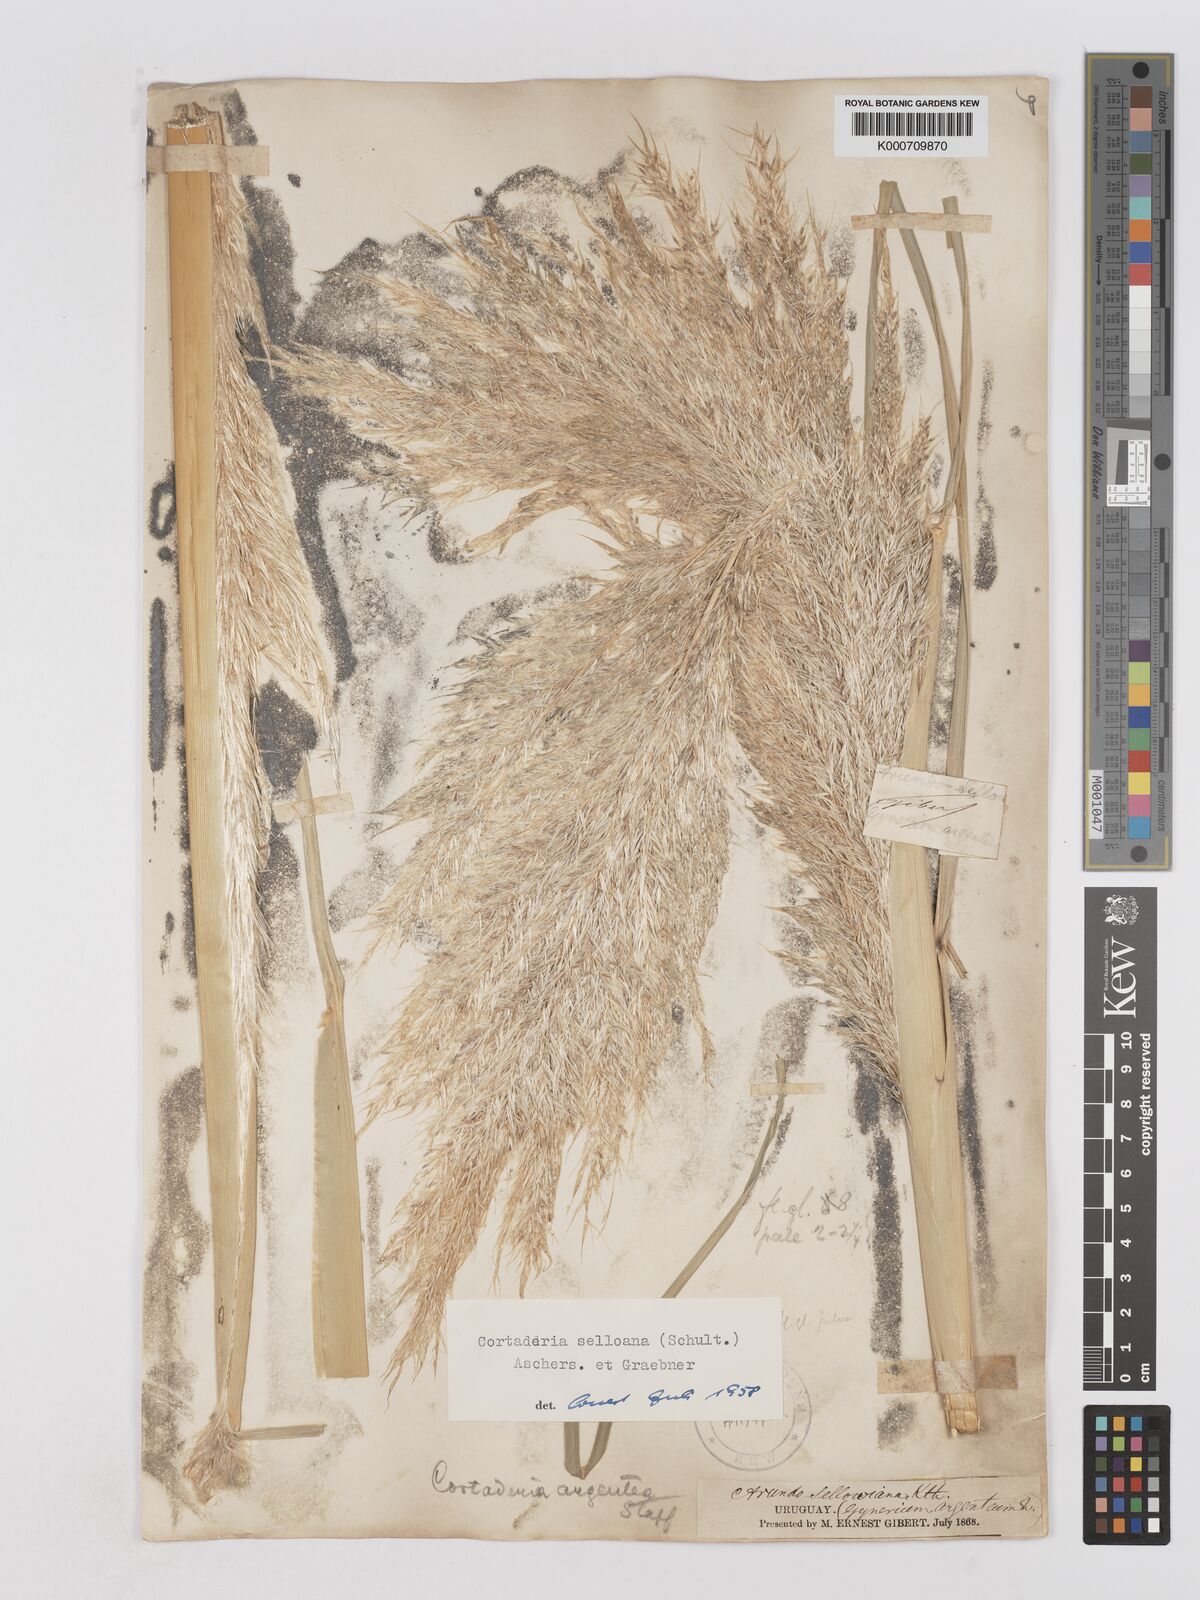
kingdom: Plantae
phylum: Tracheophyta
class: Liliopsida
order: Poales
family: Poaceae
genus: Cortaderia
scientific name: Cortaderia selloana
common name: Uruguayan pampas grass
